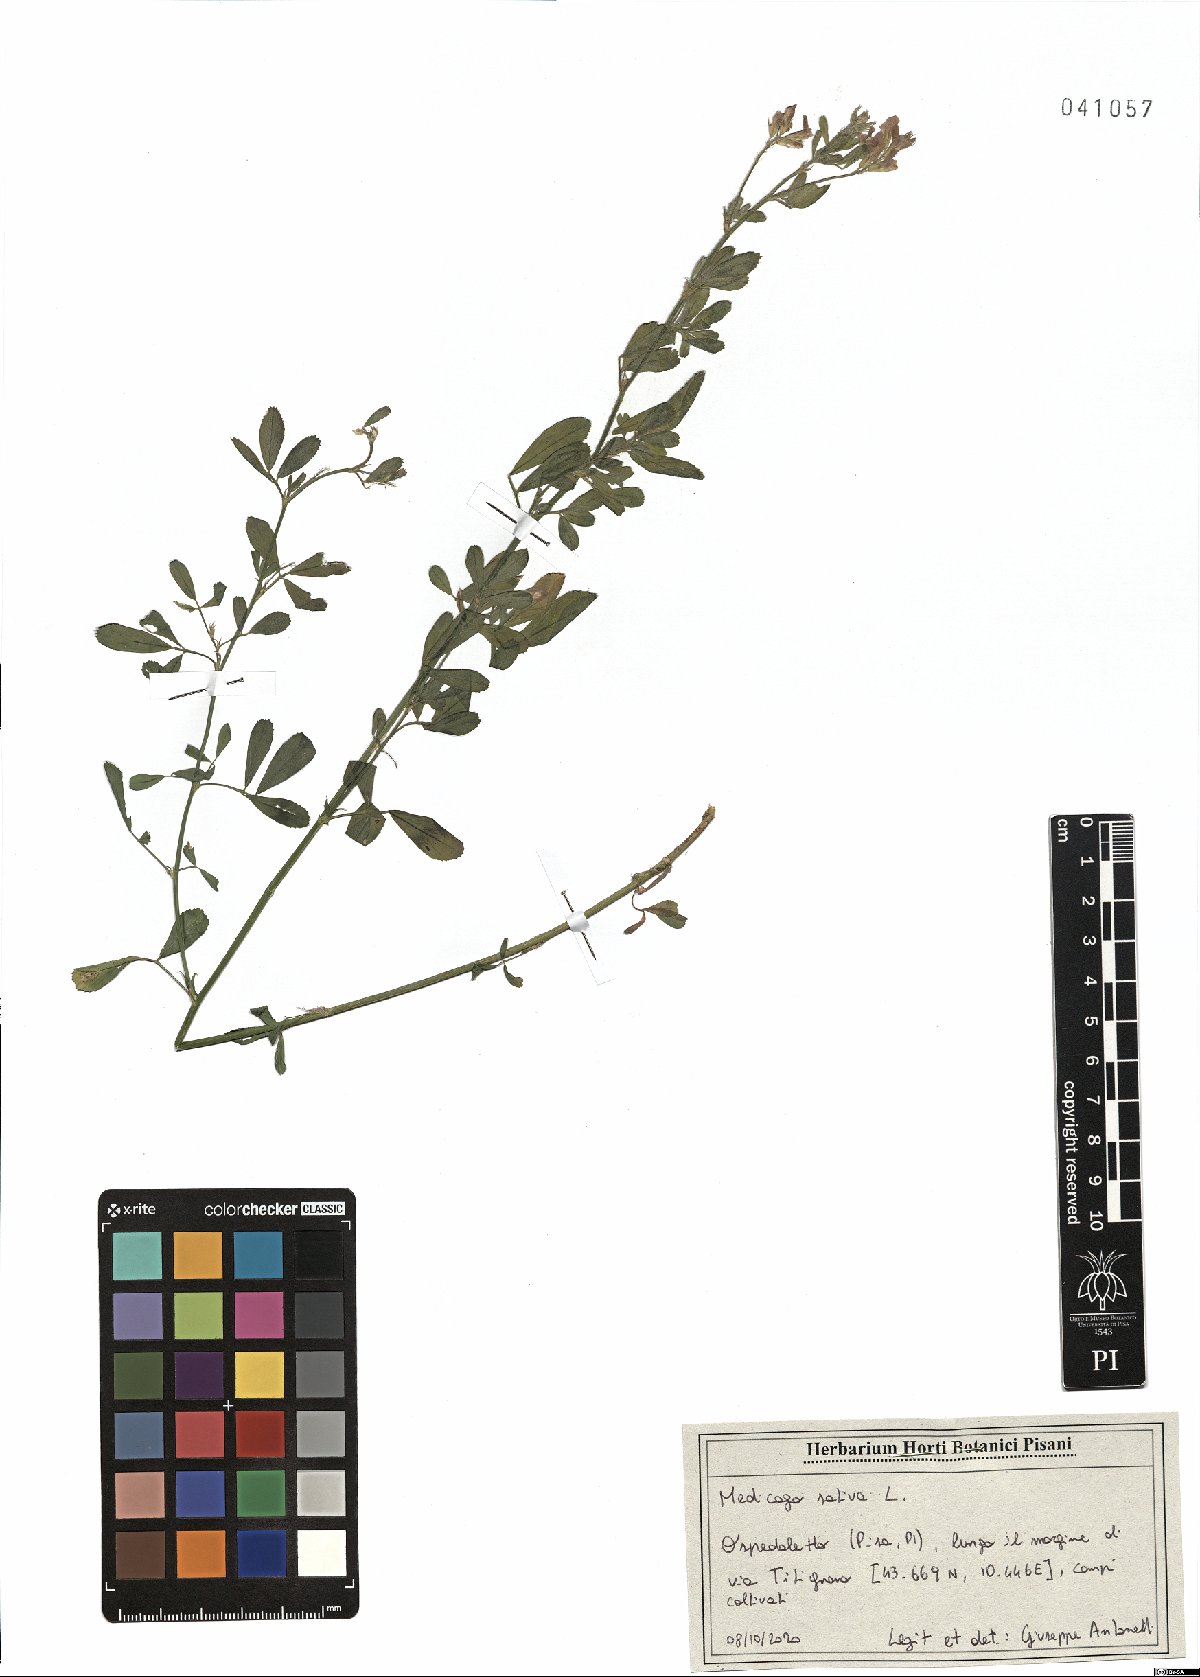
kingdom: Plantae
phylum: Tracheophyta
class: Magnoliopsida
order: Fabales
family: Fabaceae
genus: Medicago
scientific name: Medicago sativa
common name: Alfalfa
